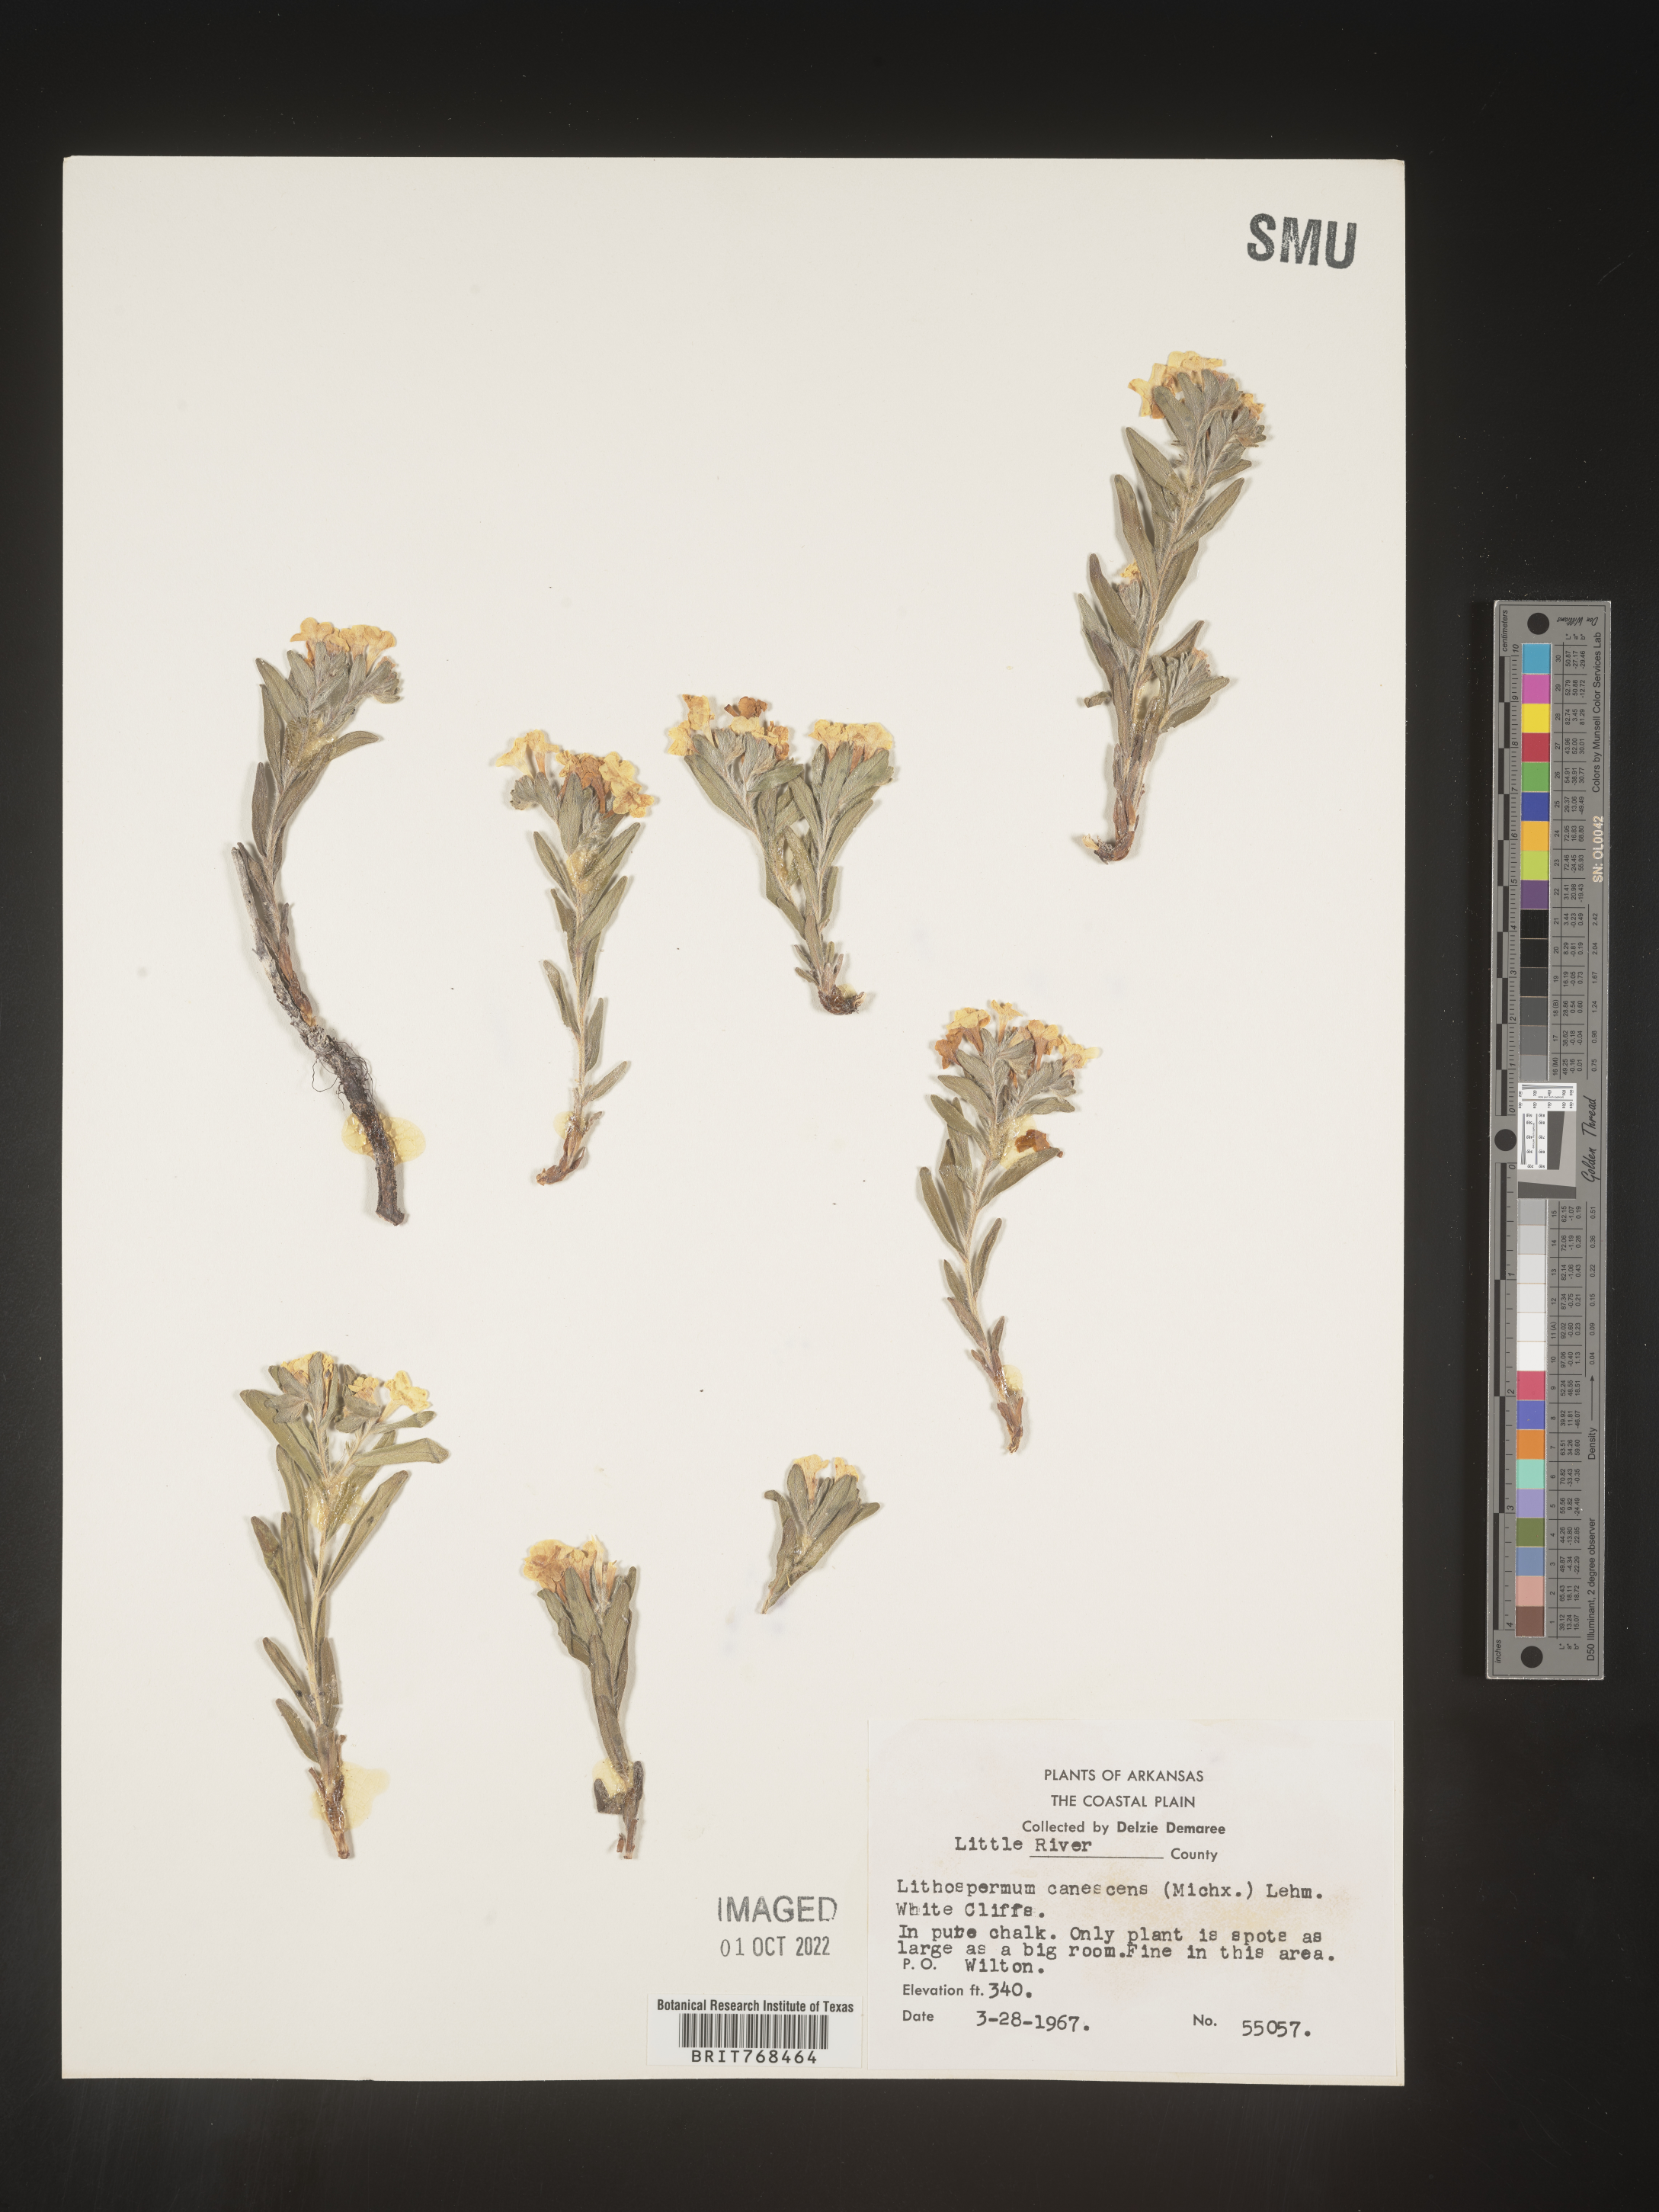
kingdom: Plantae
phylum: Tracheophyta
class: Magnoliopsida
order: Boraginales
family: Boraginaceae
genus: Lithospermum
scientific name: Lithospermum canescens
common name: Hoary puccoon
